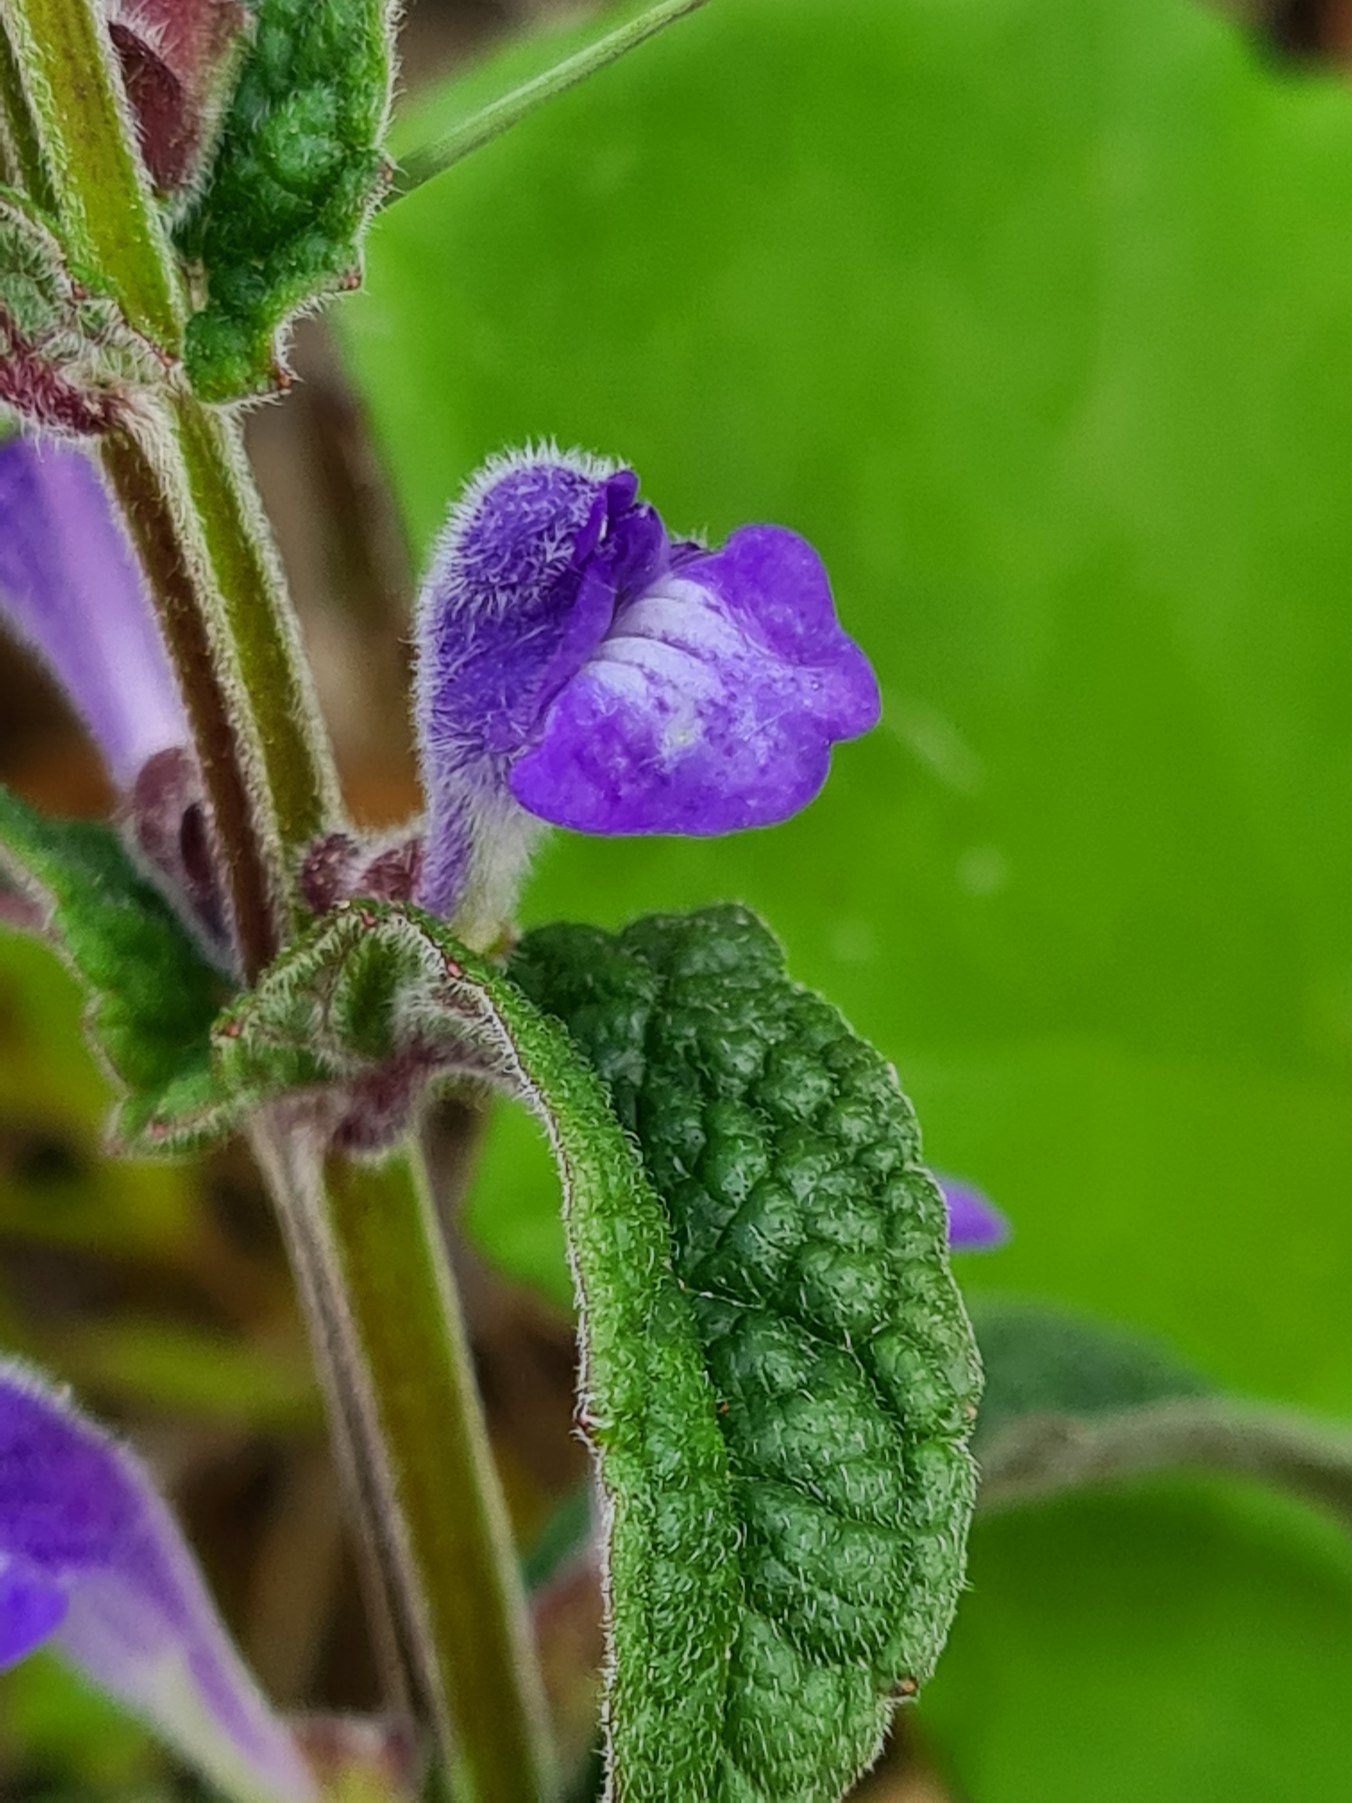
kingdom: Plantae
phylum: Tracheophyta
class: Magnoliopsida
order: Lamiales
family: Lamiaceae
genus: Scutellaria
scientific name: Scutellaria galericulata
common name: Almindelig skjolddrager
